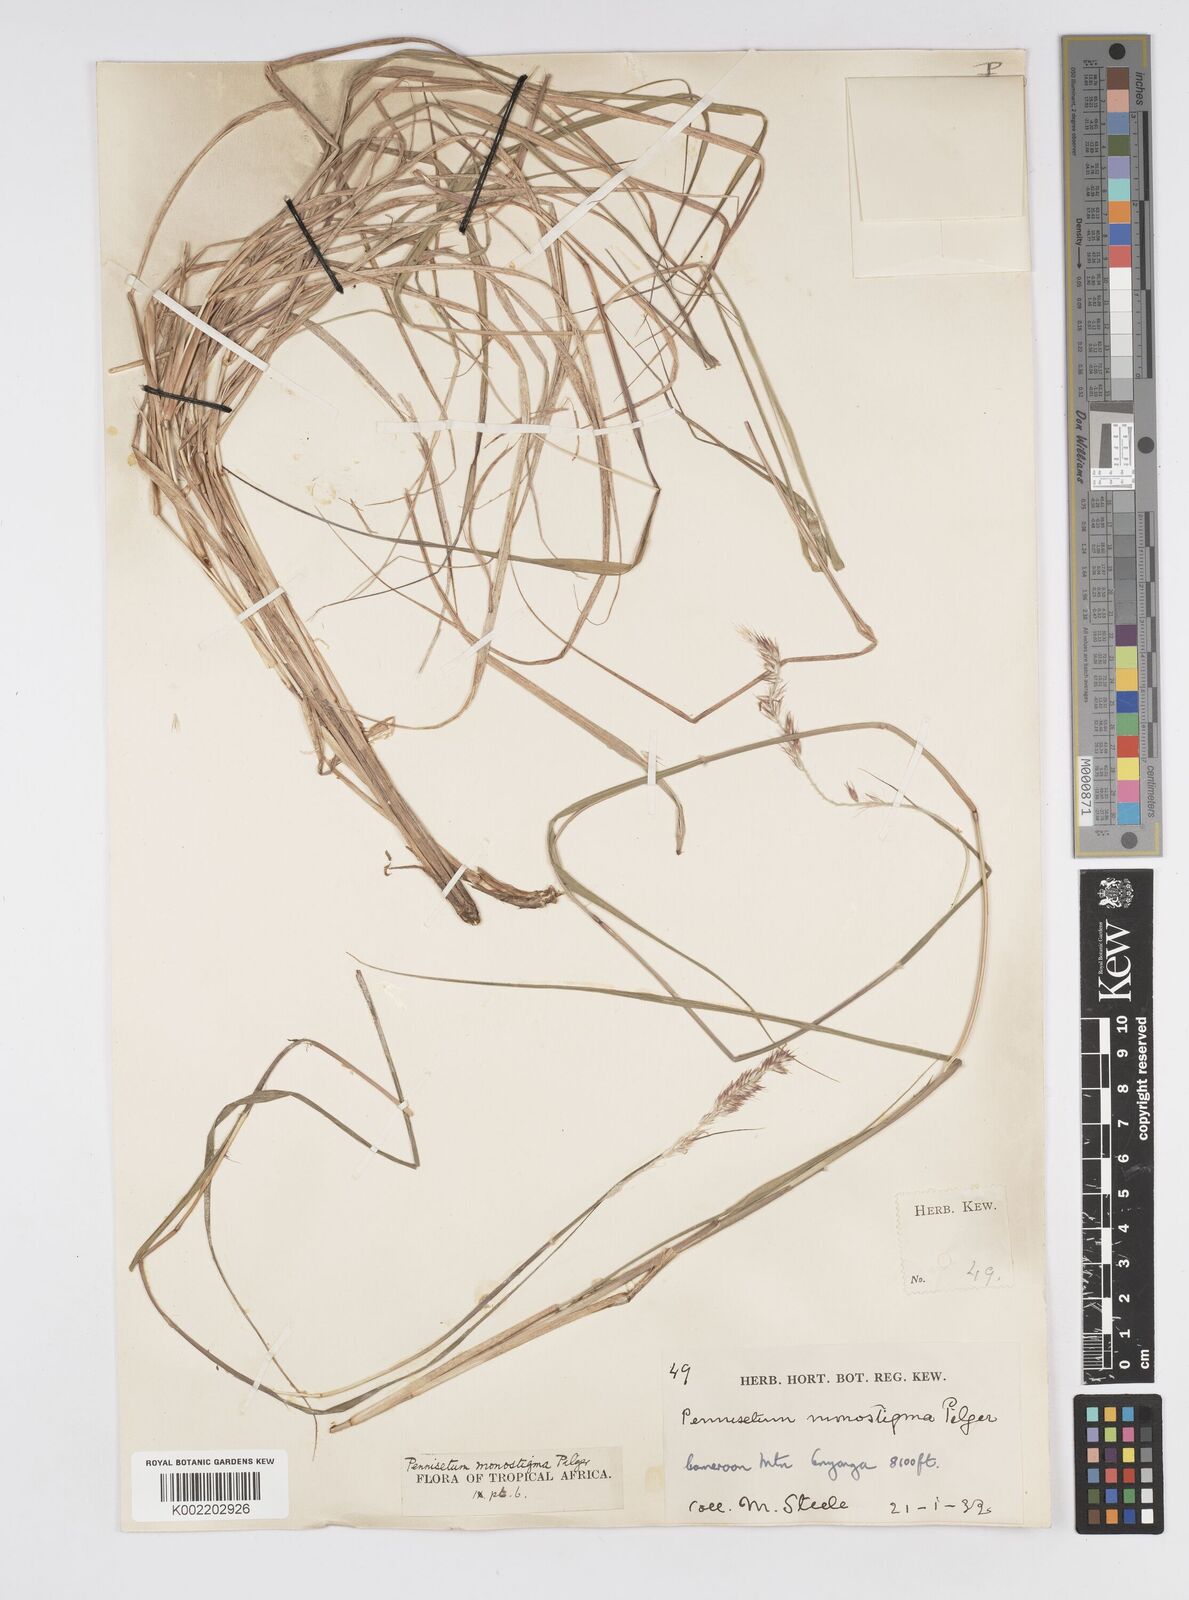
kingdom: Plantae
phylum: Tracheophyta
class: Liliopsida
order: Poales
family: Poaceae
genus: Cenchrus
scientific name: Cenchrus monostigma
